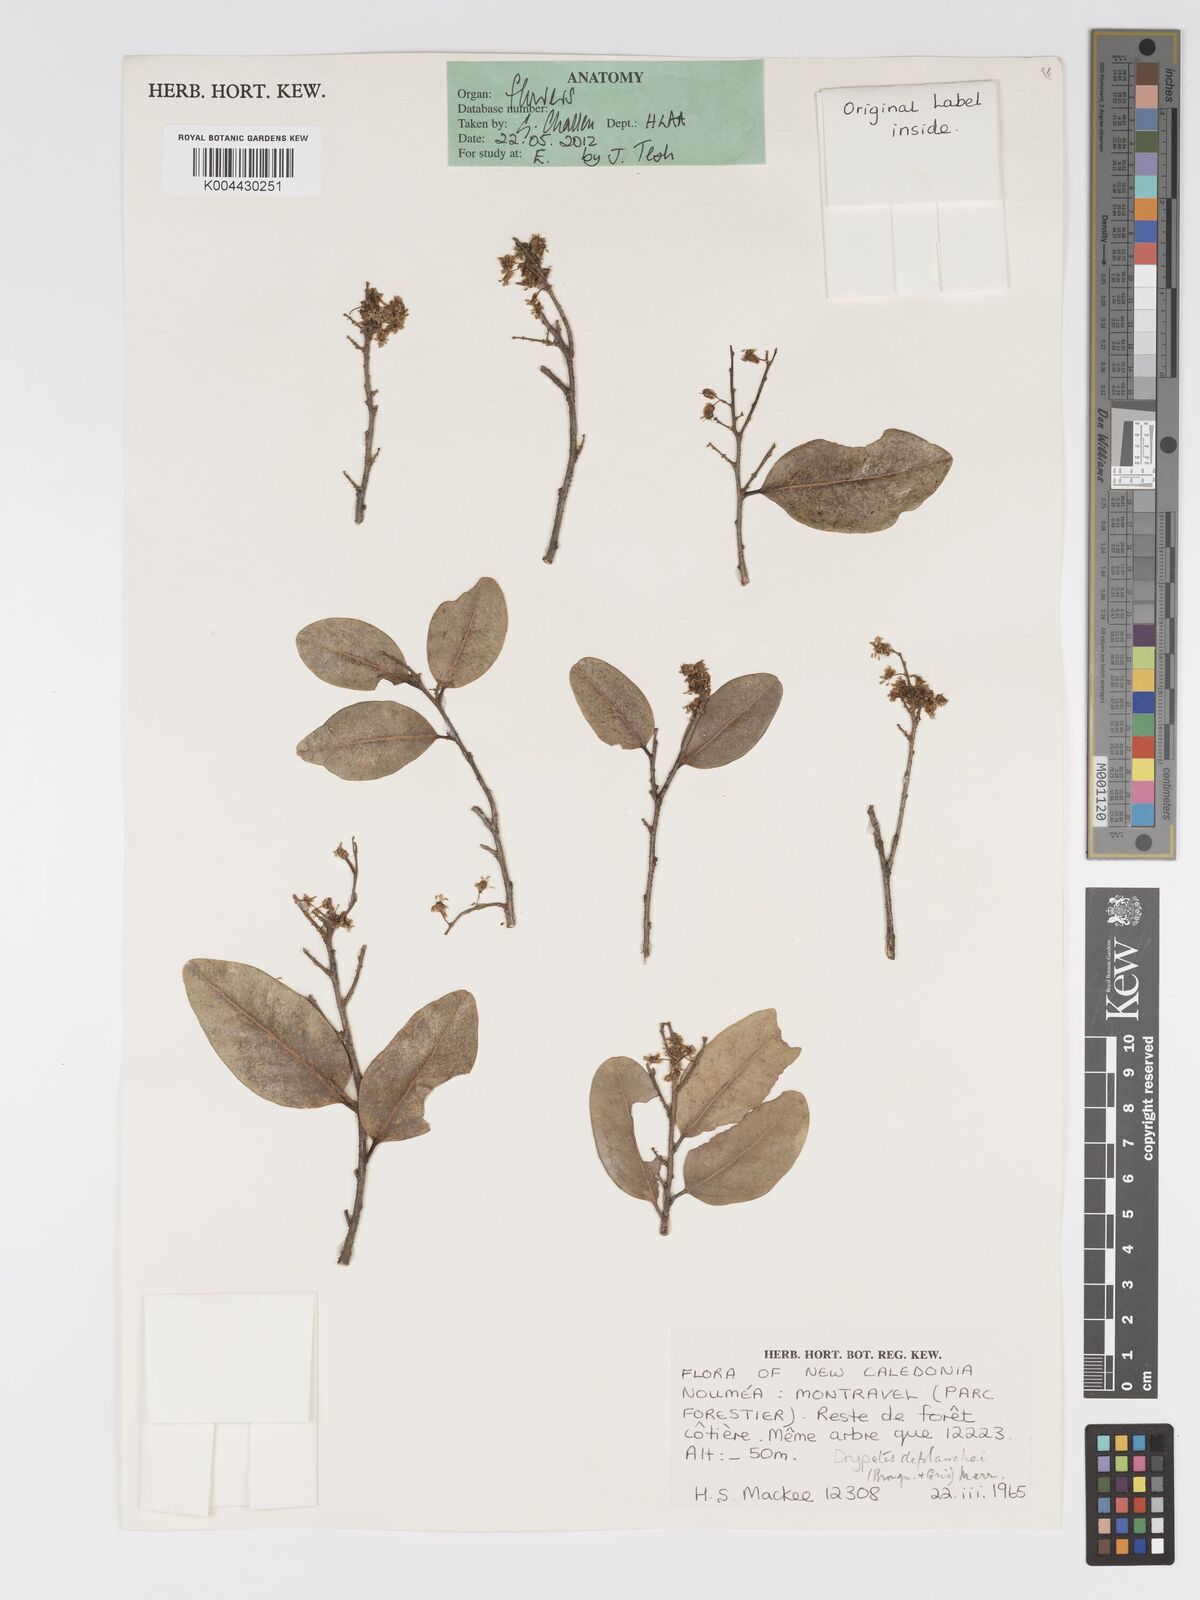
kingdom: Plantae
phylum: Tracheophyta
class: Magnoliopsida
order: Malpighiales
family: Putranjivaceae
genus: Drypetes
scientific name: Drypetes deplanchei
